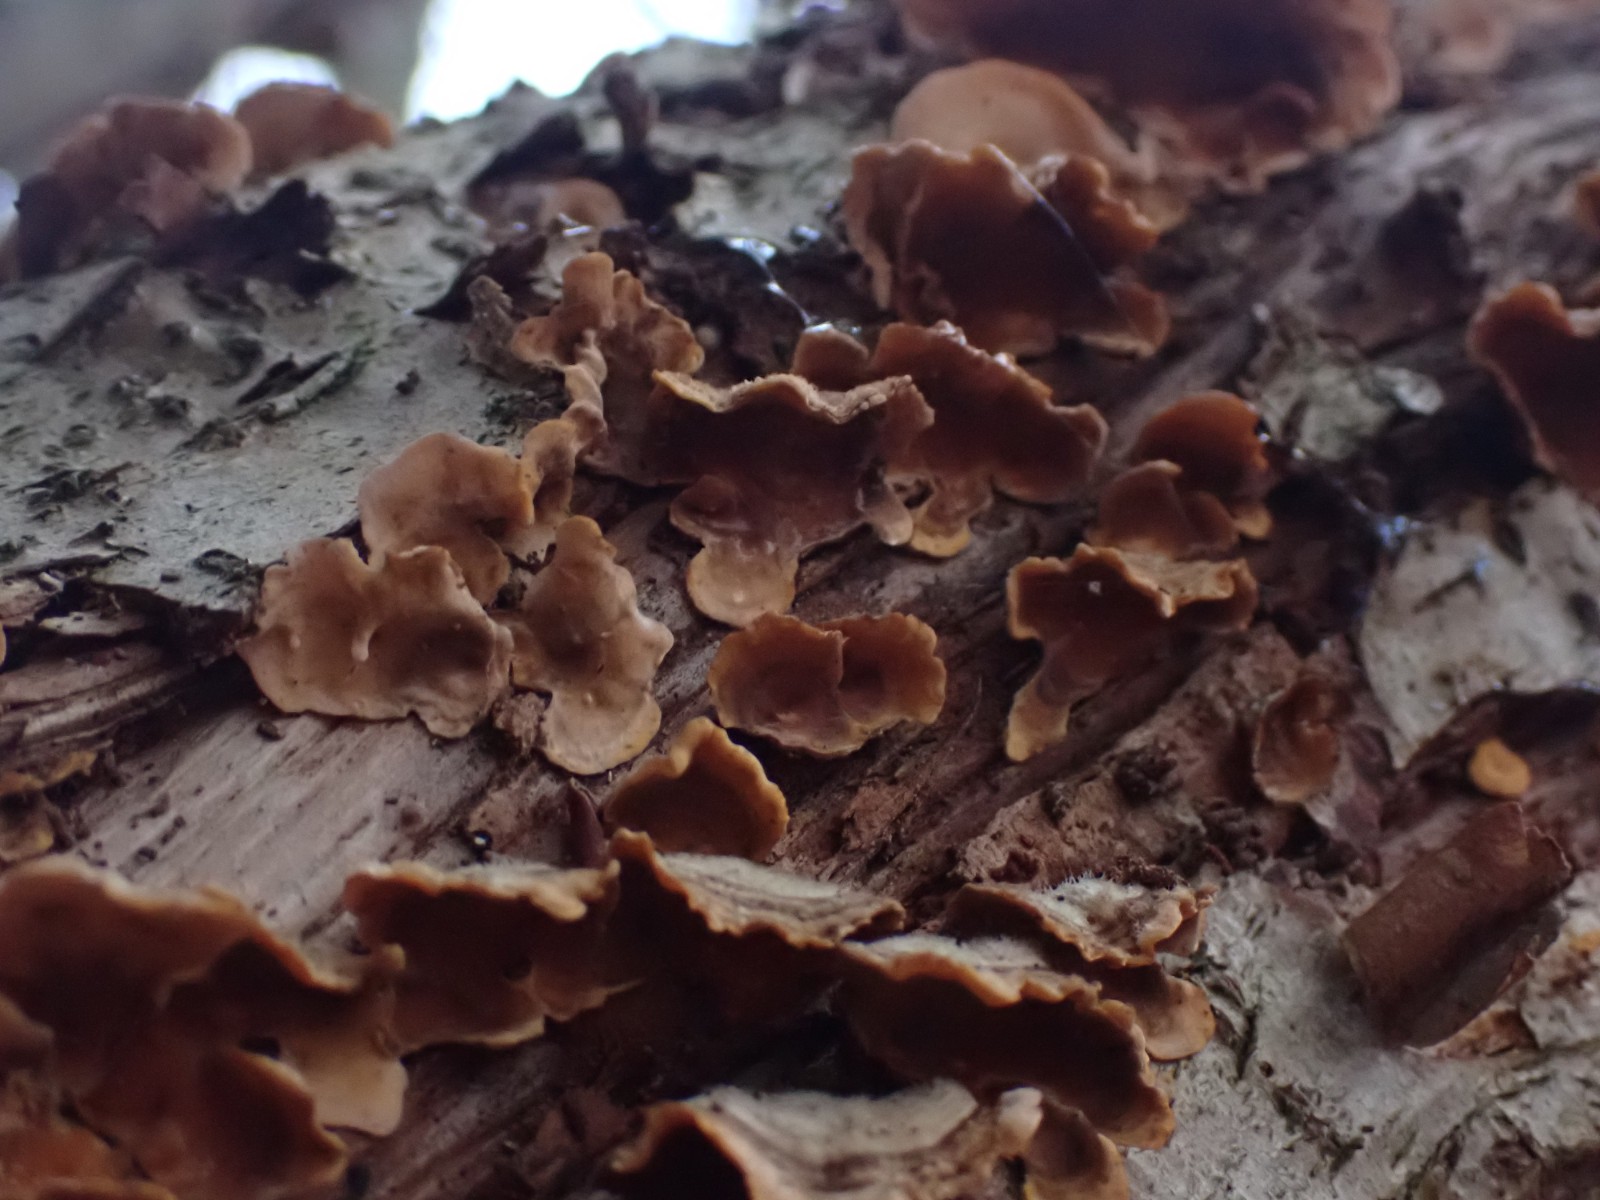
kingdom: Fungi
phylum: Basidiomycota
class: Agaricomycetes
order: Russulales
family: Stereaceae
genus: Stereum
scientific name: Stereum hirsutum
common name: håret lædersvamp
